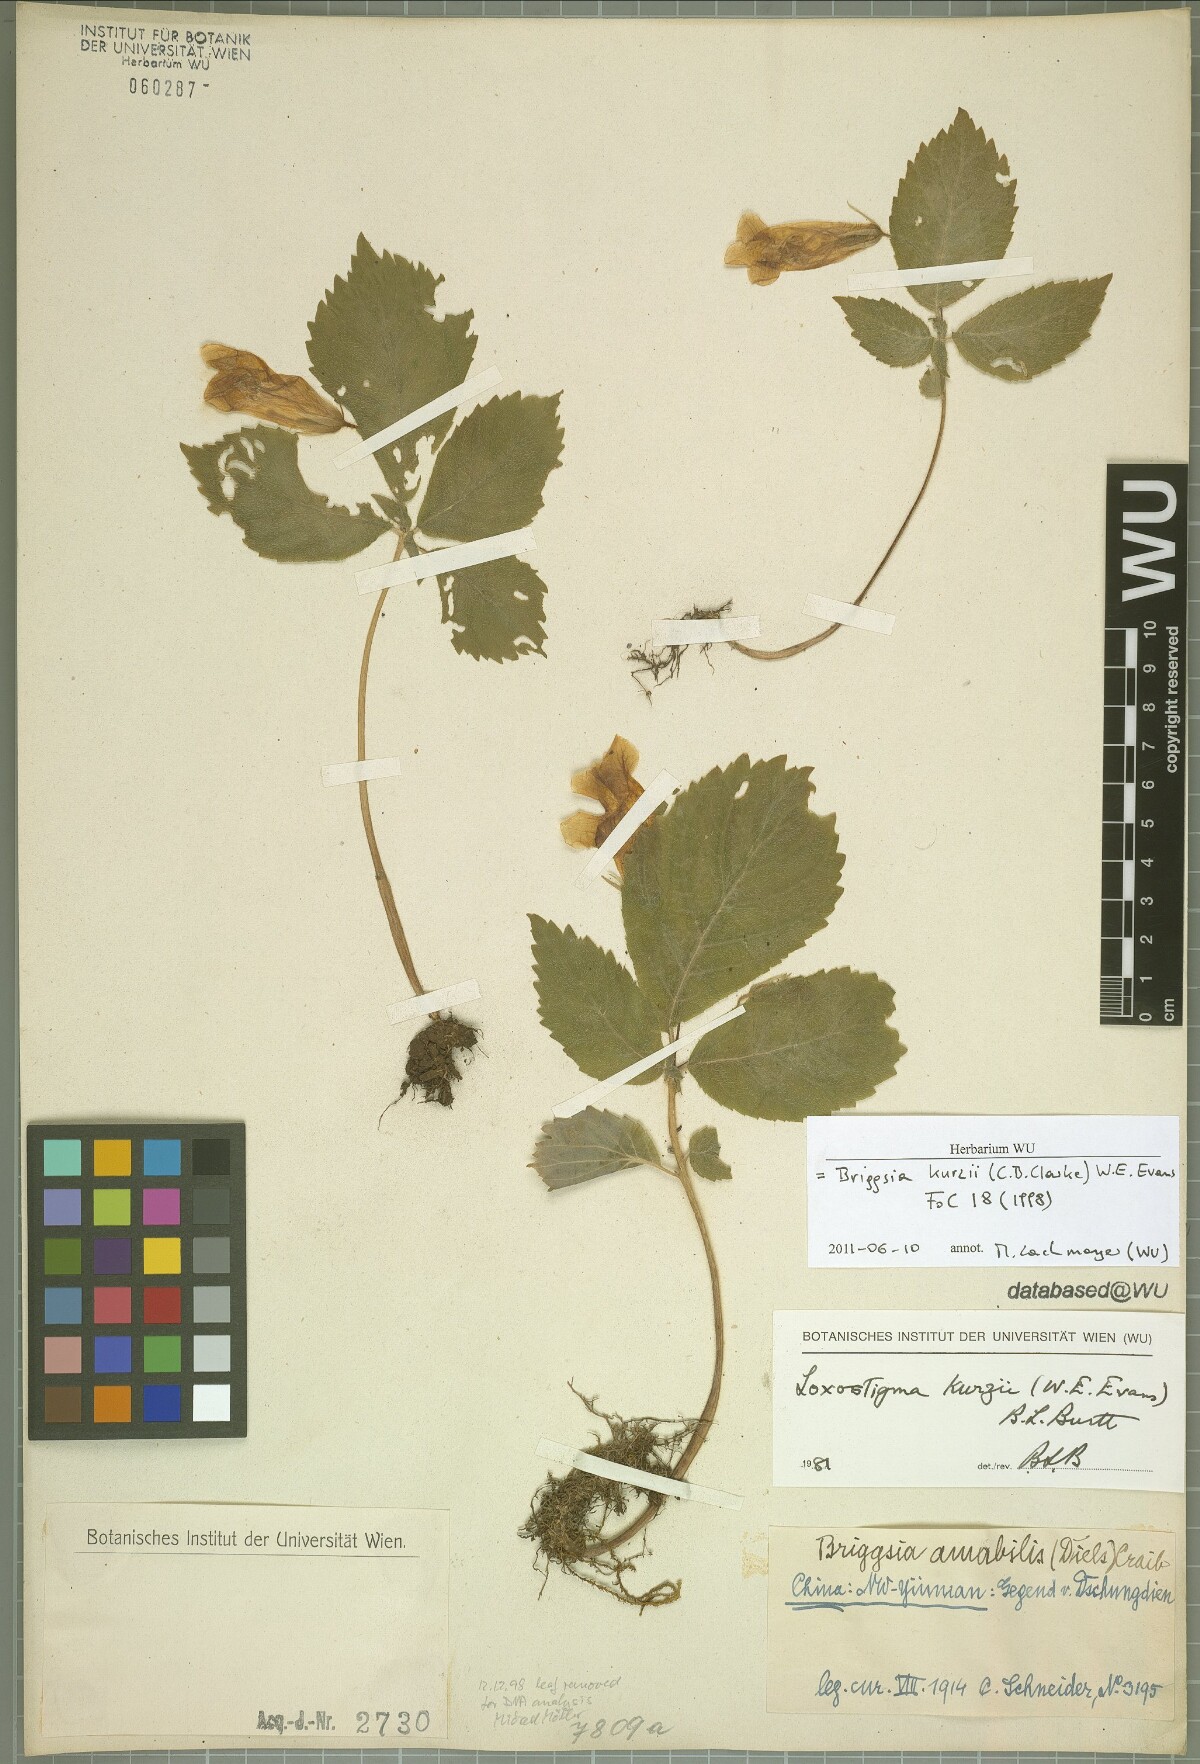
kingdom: Plantae
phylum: Tracheophyta
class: Magnoliopsida
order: Lamiales
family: Gesneriaceae
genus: Loxostigma
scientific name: Loxostigma kurzii
